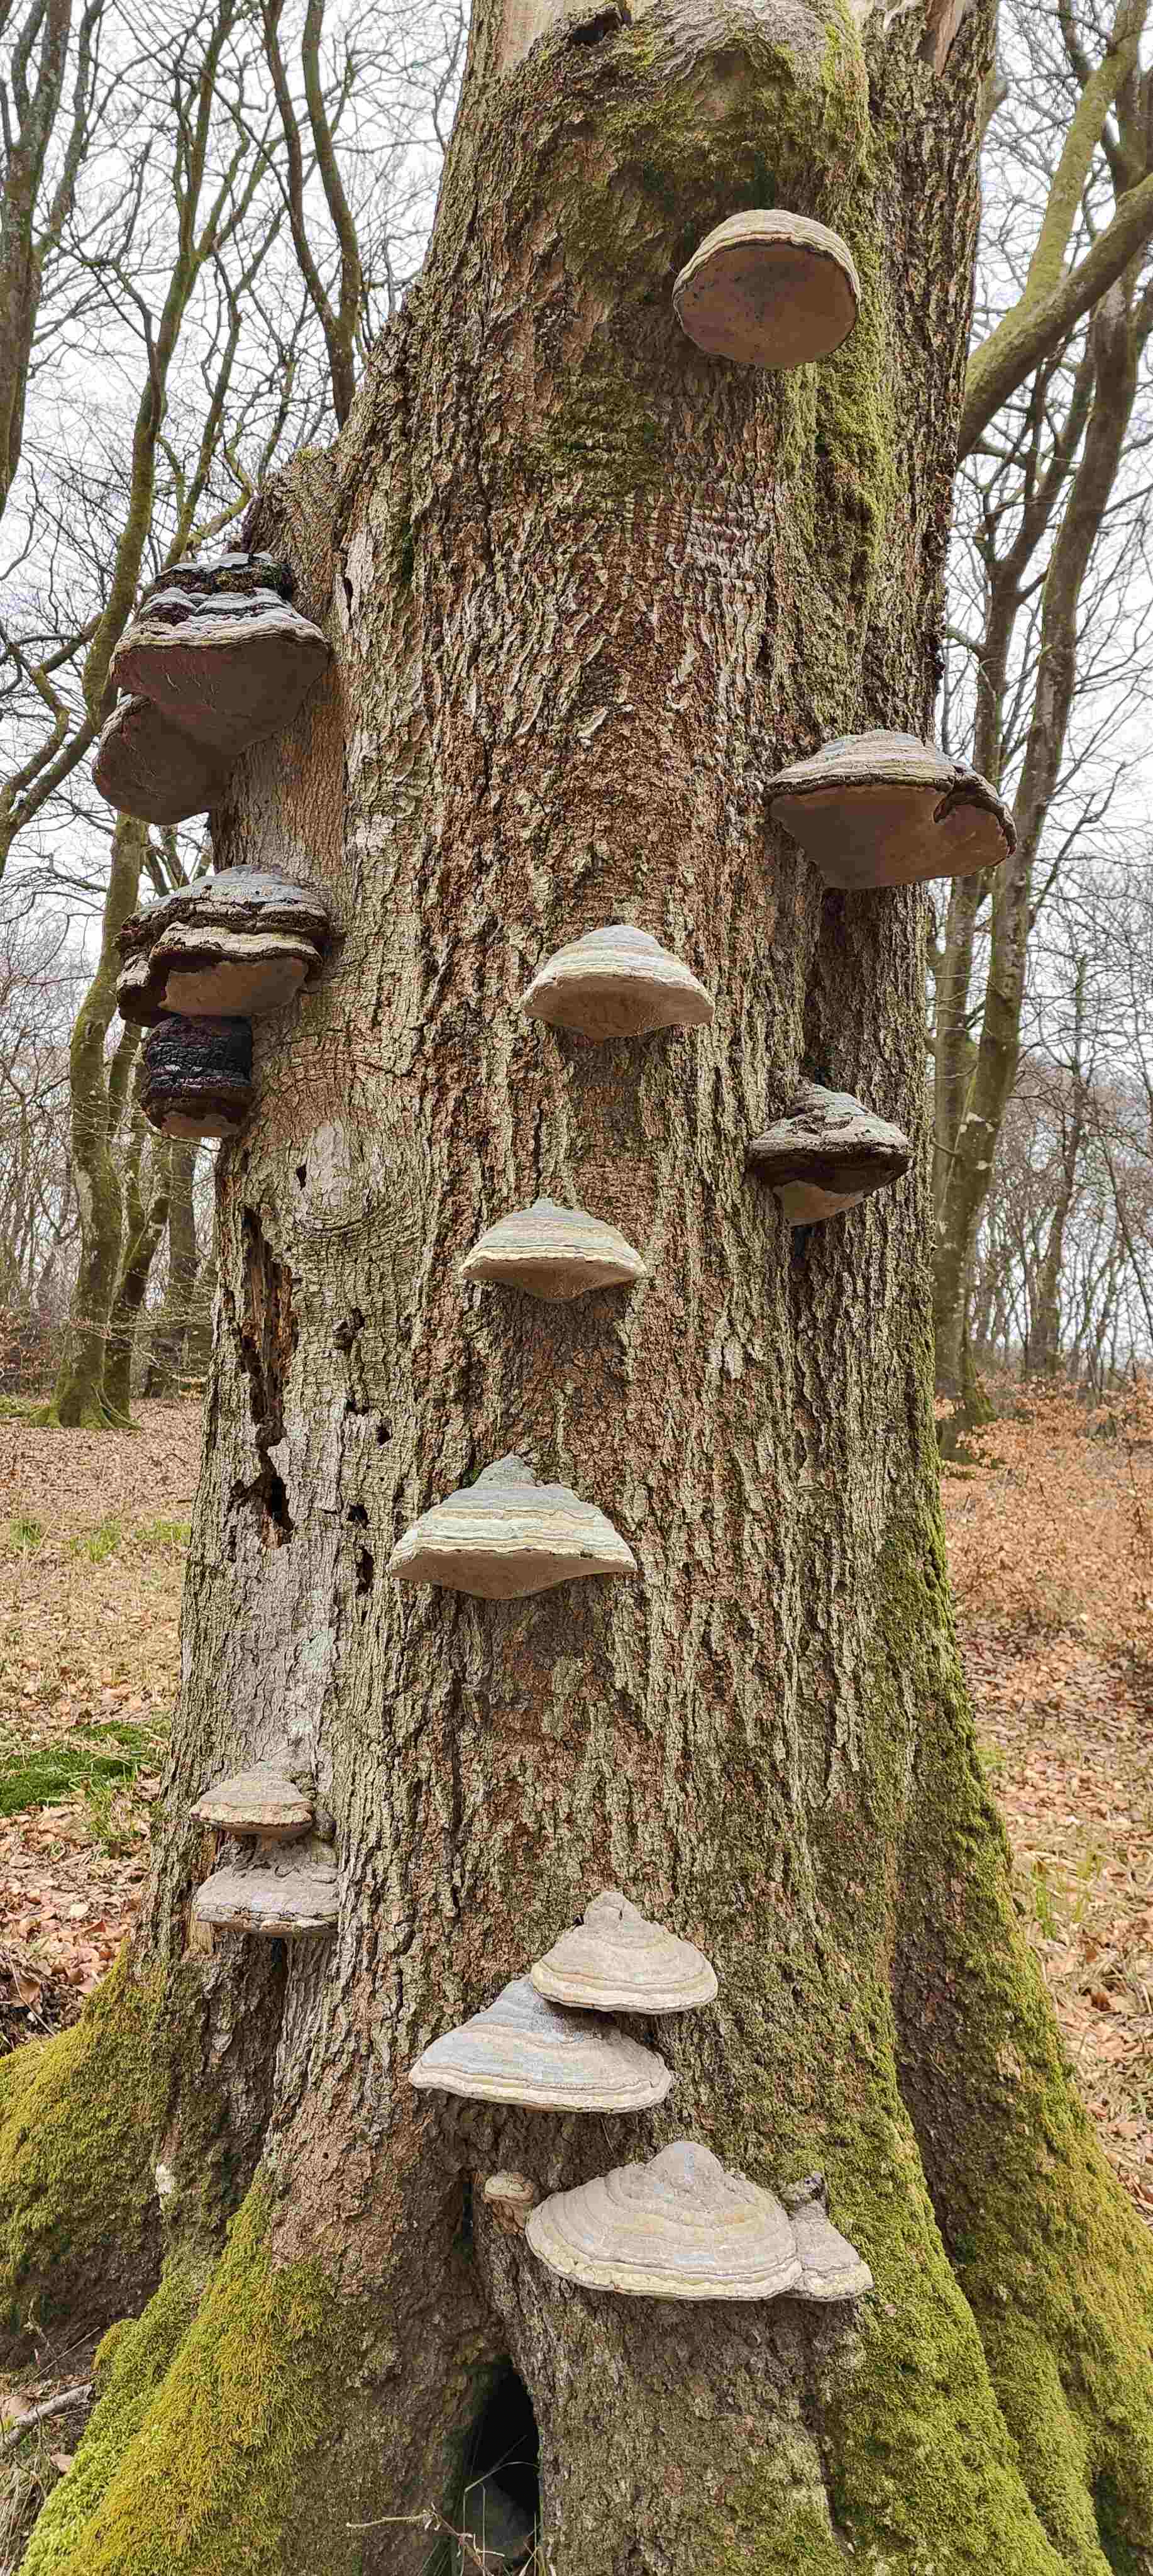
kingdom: Fungi
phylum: Basidiomycota
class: Agaricomycetes
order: Polyporales
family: Polyporaceae
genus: Fomes
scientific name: Fomes fomentarius
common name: tøndersvamp
